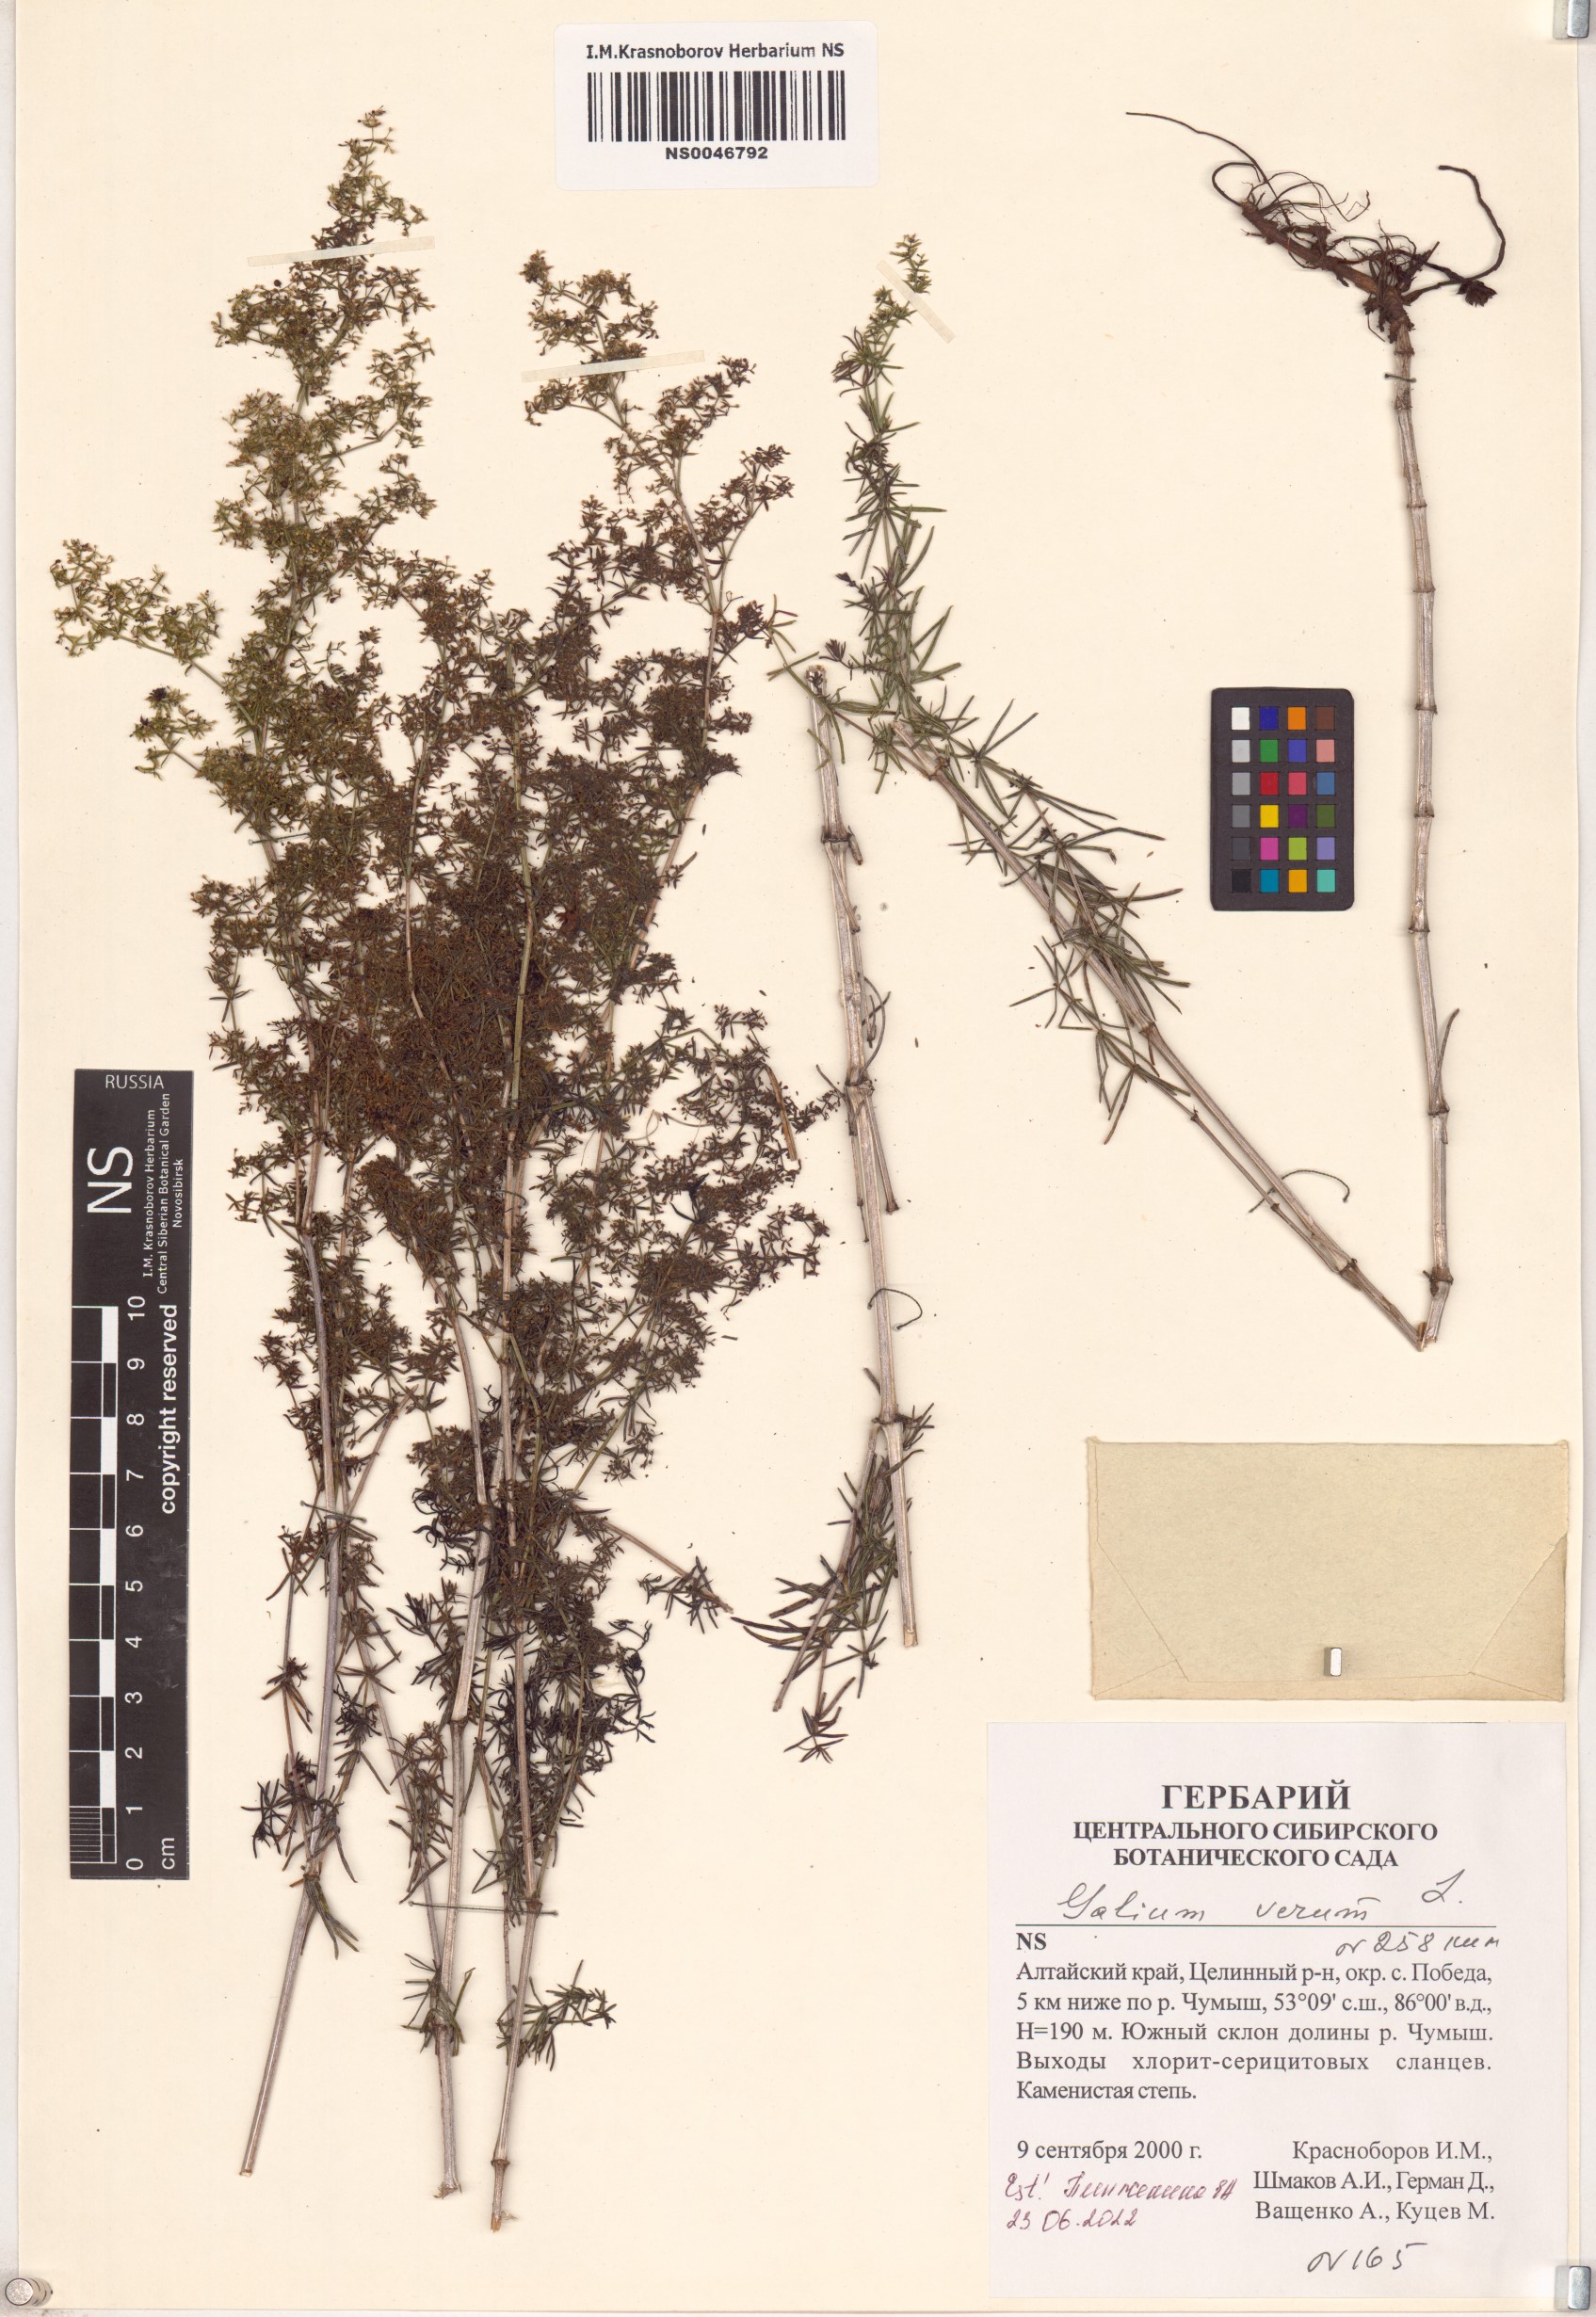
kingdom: Plantae
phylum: Tracheophyta
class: Magnoliopsida
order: Gentianales
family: Rubiaceae
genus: Galium
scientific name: Galium verum
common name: Lady's bedstraw
